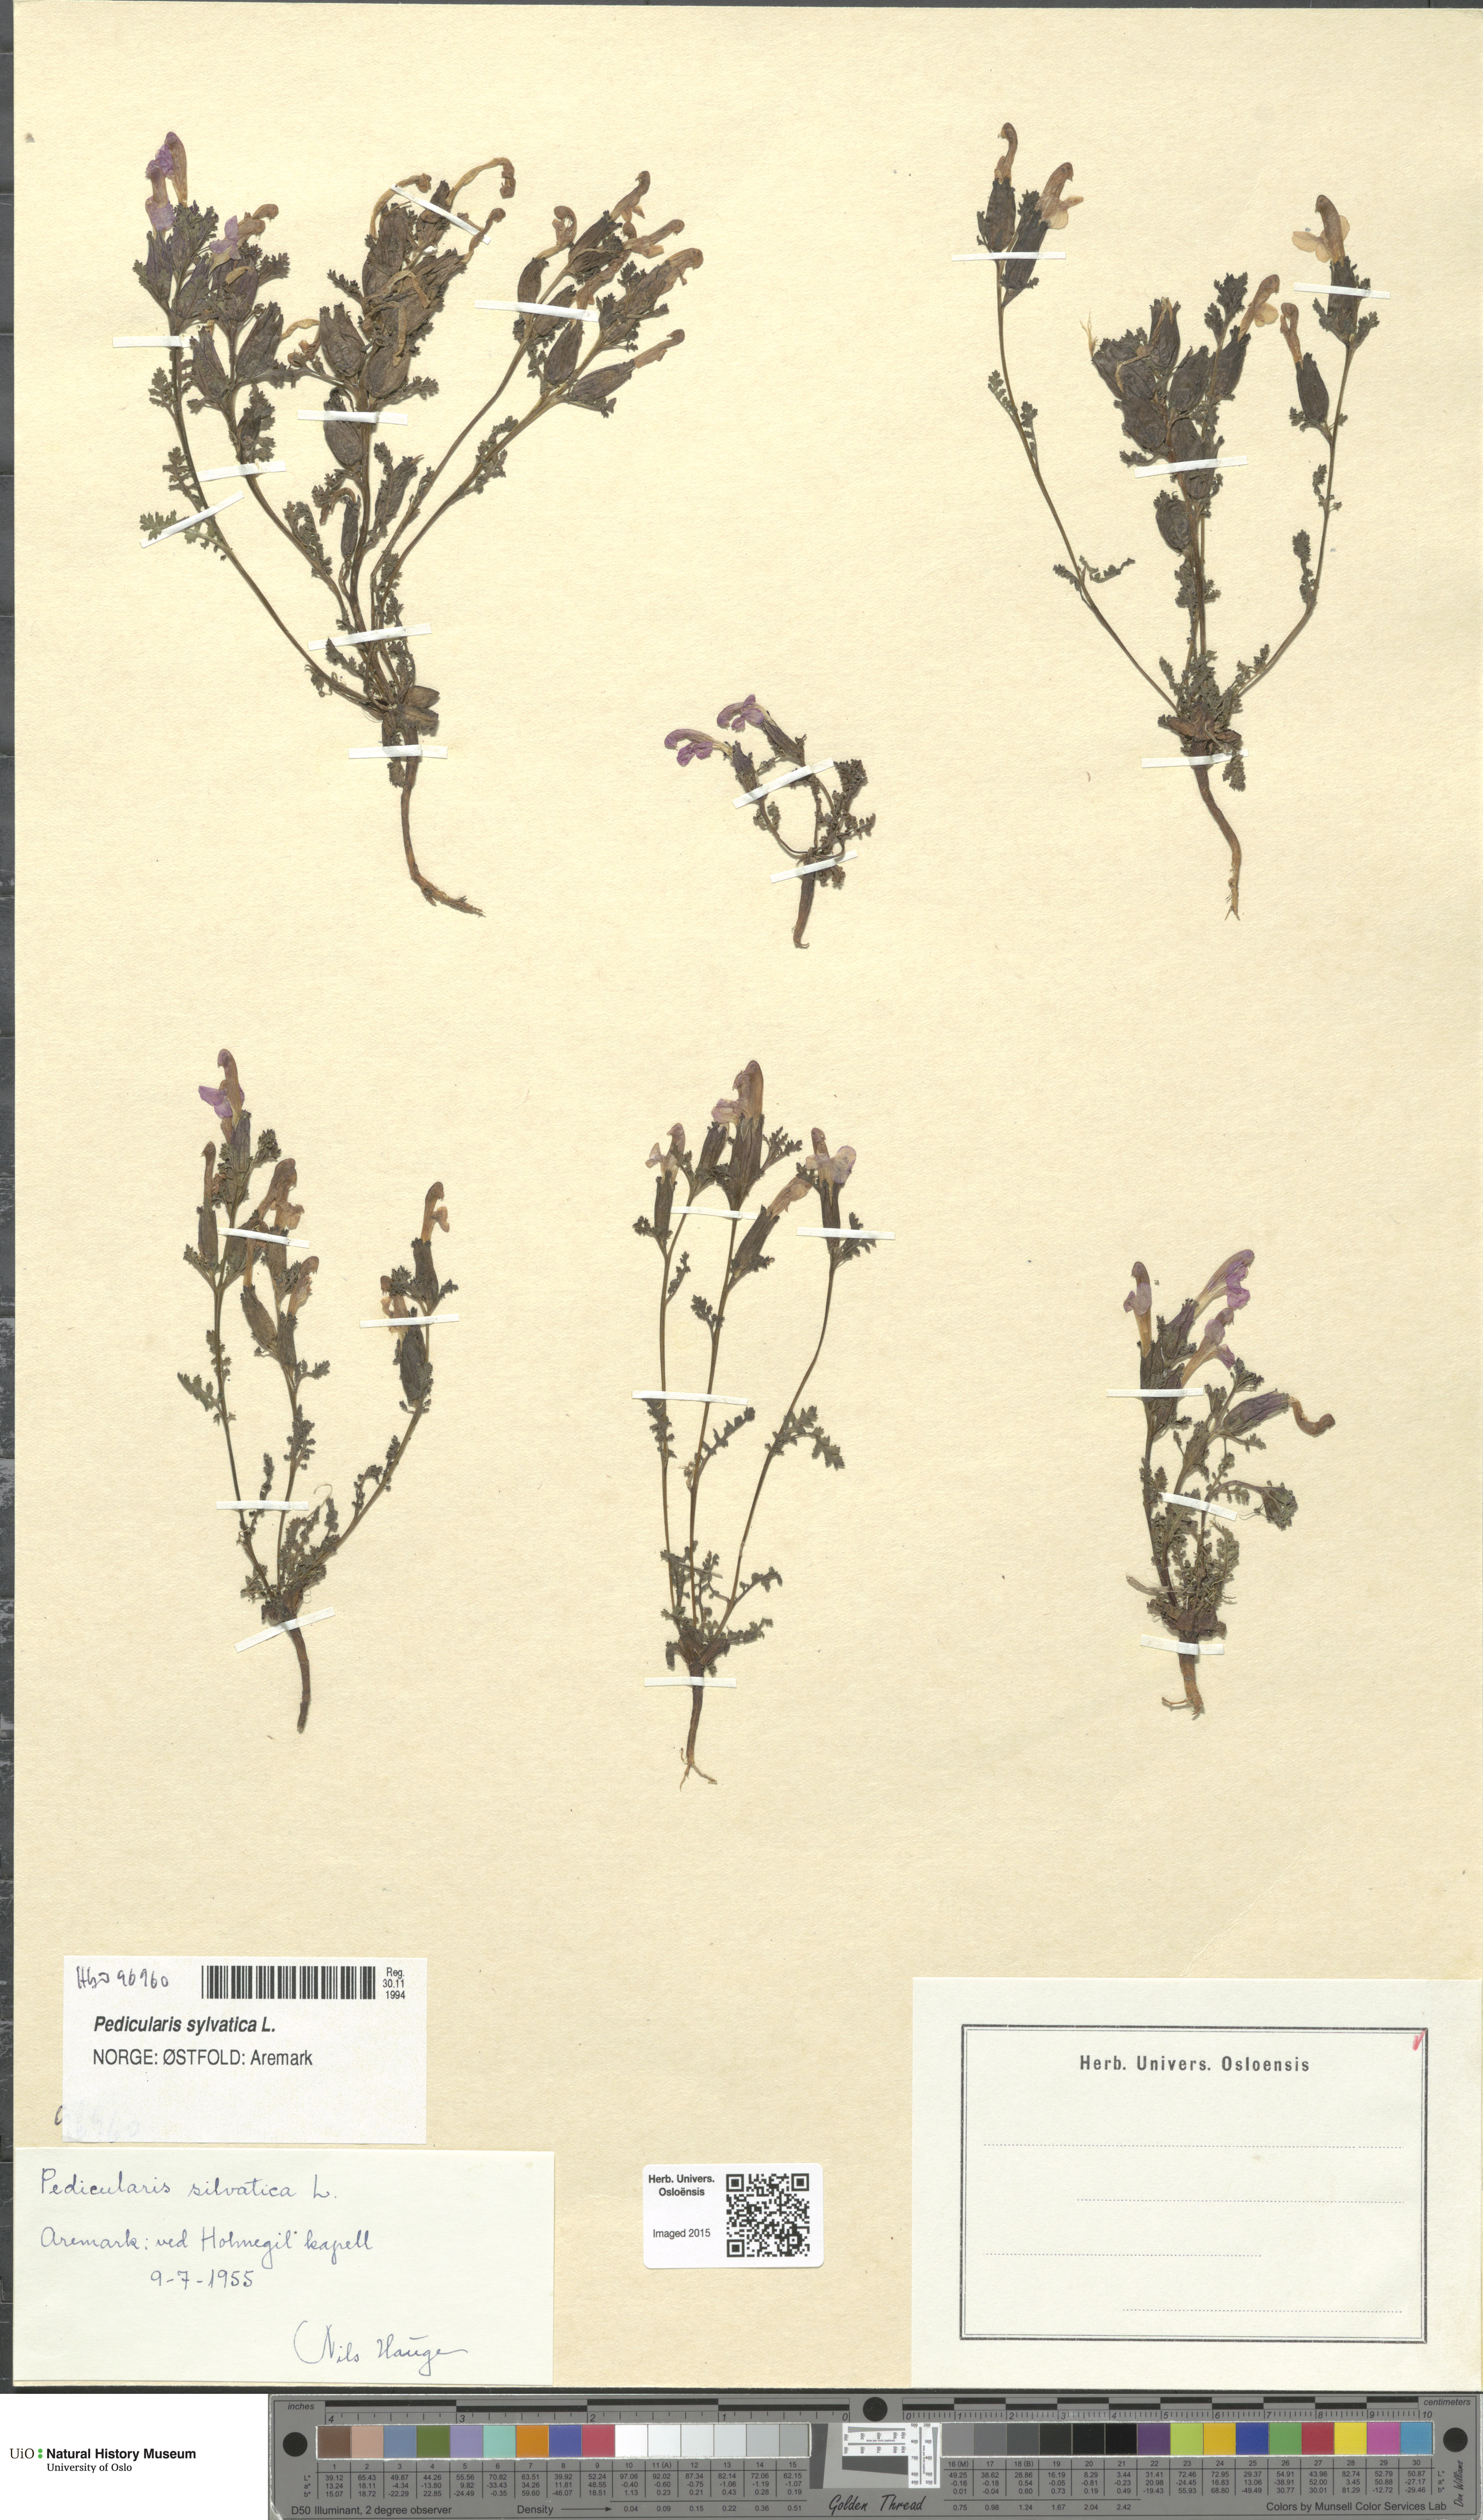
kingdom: Plantae
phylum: Tracheophyta
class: Magnoliopsida
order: Lamiales
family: Orobanchaceae
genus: Pedicularis
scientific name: Pedicularis sylvatica
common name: Lousewort
